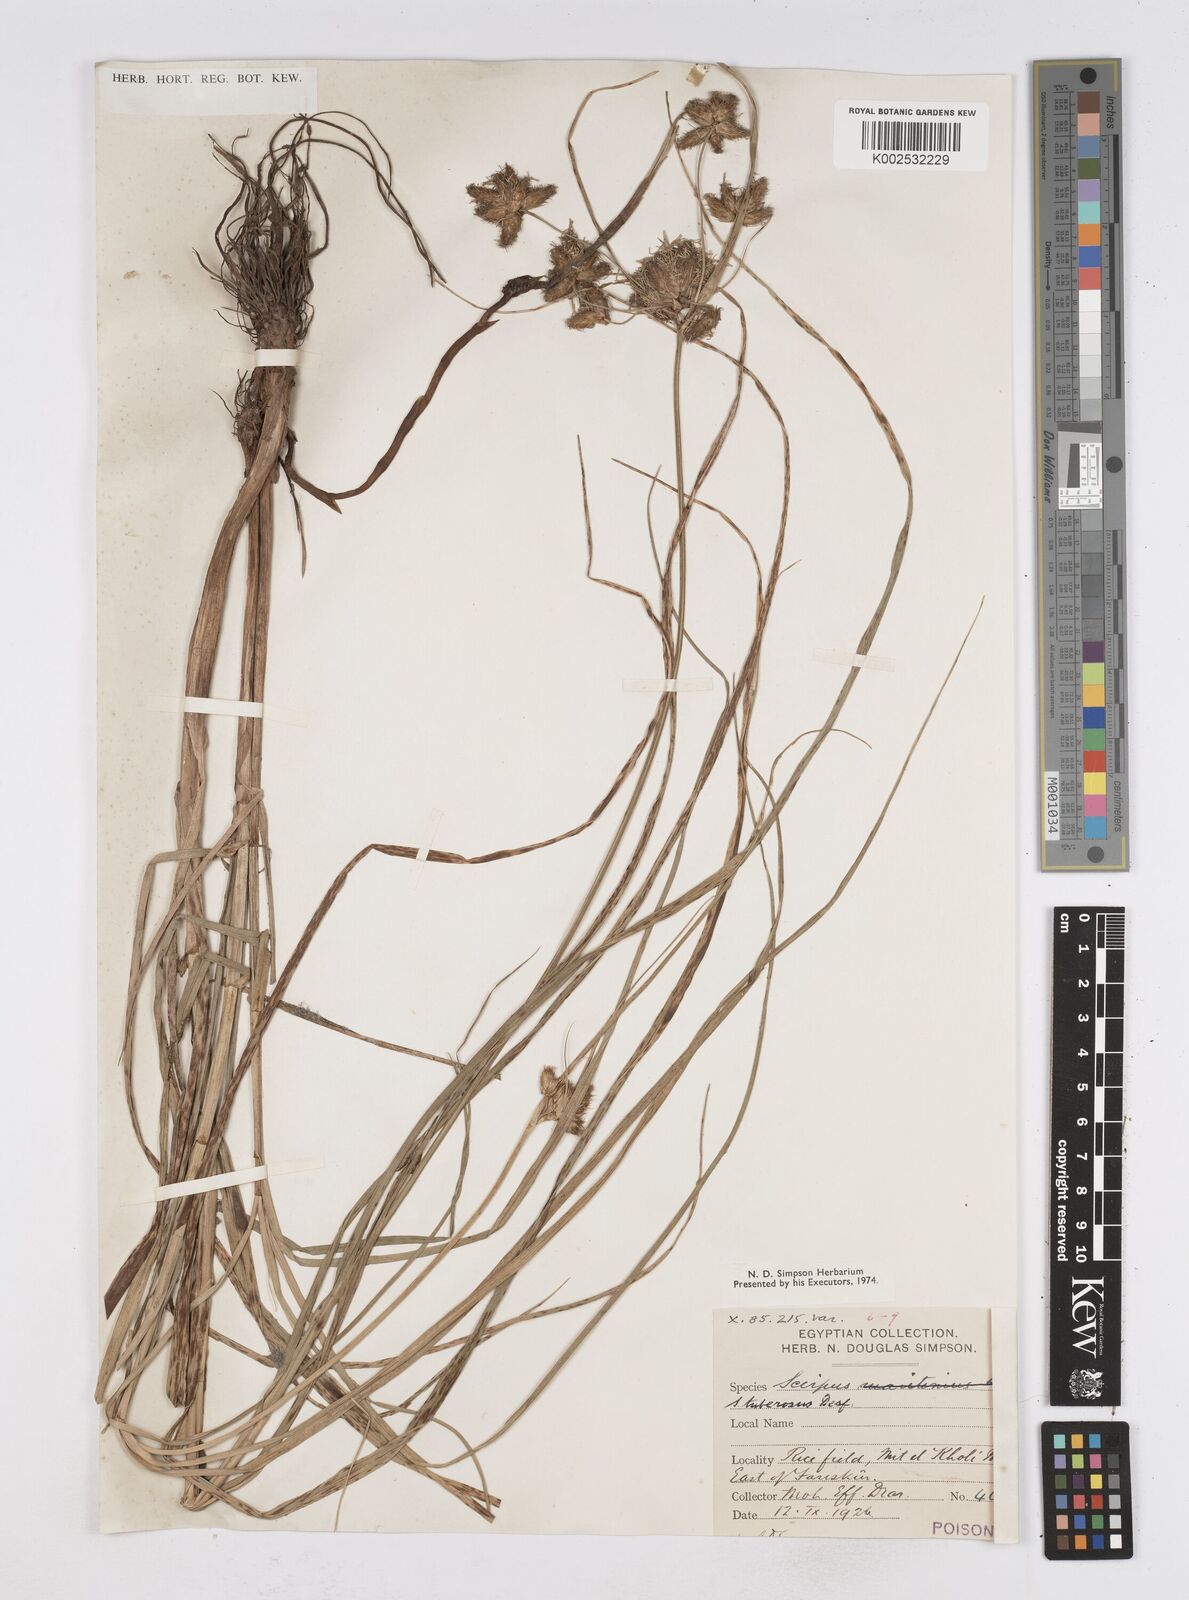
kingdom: Plantae
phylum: Tracheophyta
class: Liliopsida
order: Poales
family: Cyperaceae
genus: Bolboschoenus
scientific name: Bolboschoenus maritimus
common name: Sea club-rush
